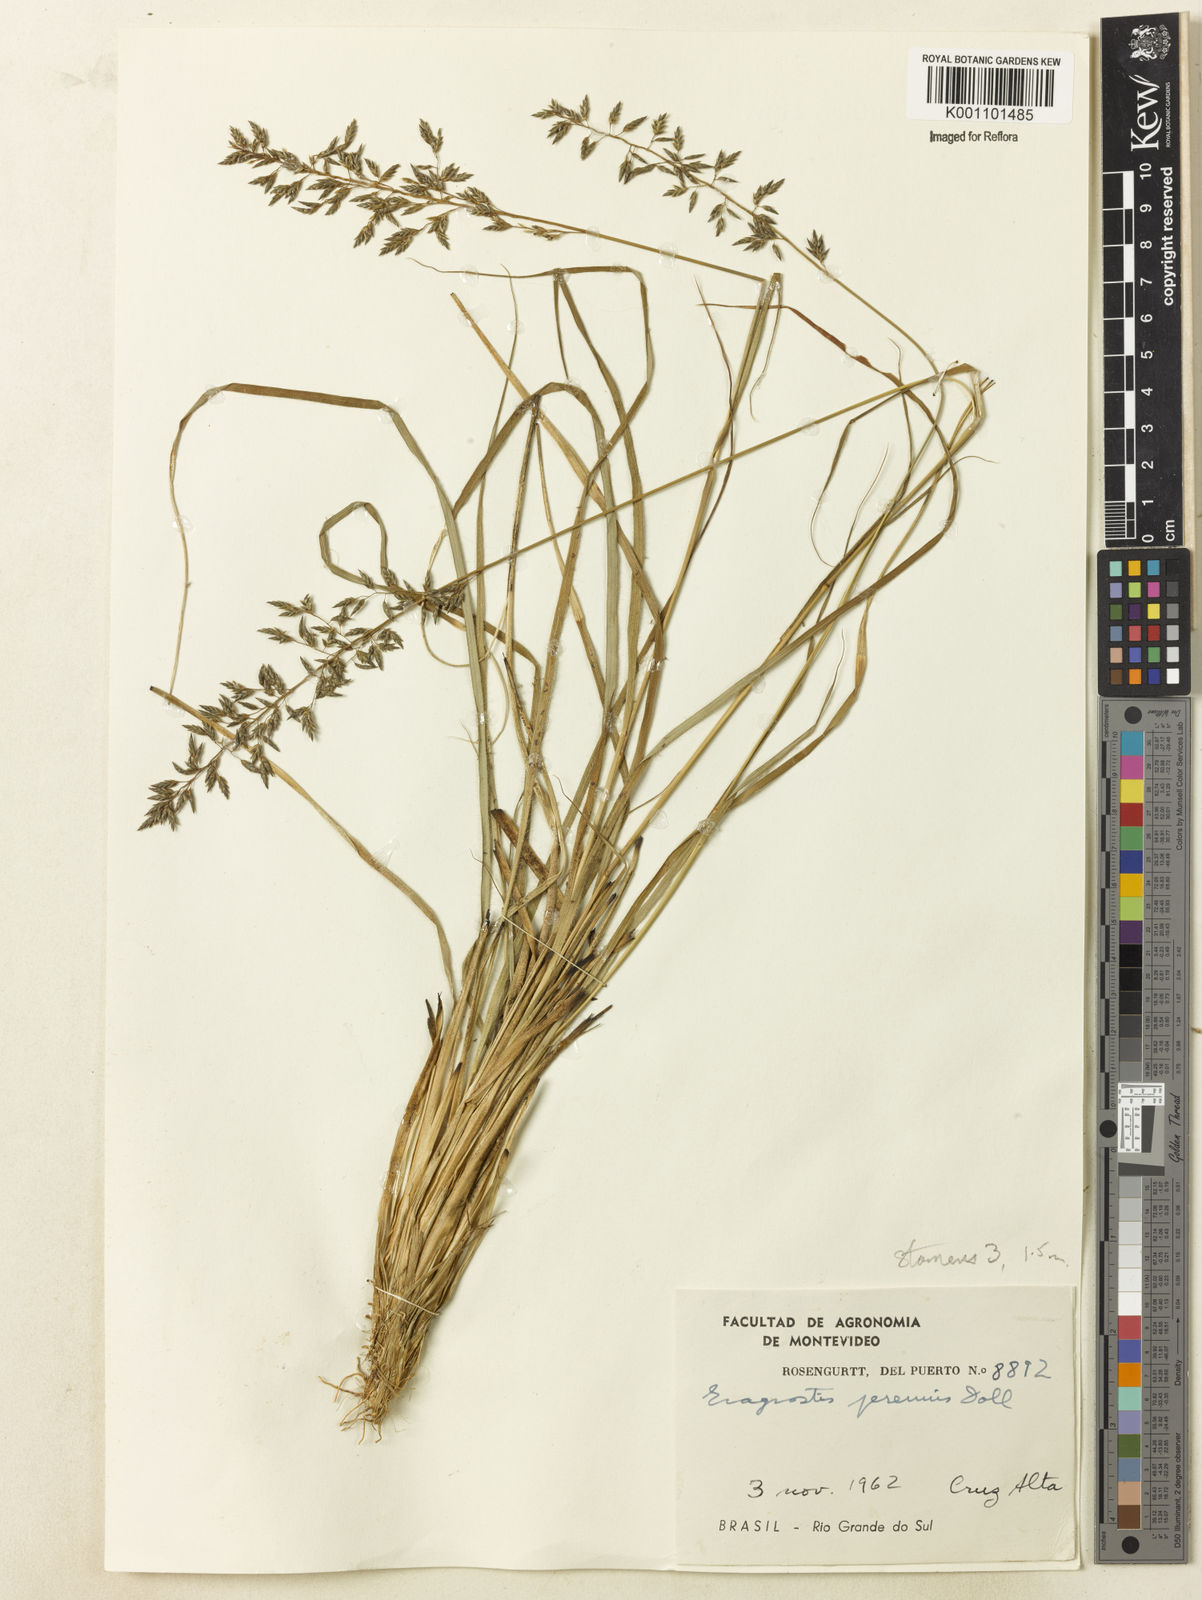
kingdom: Plantae
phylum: Tracheophyta
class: Liliopsida
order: Poales
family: Poaceae
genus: Eragrostis
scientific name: Eragrostis
